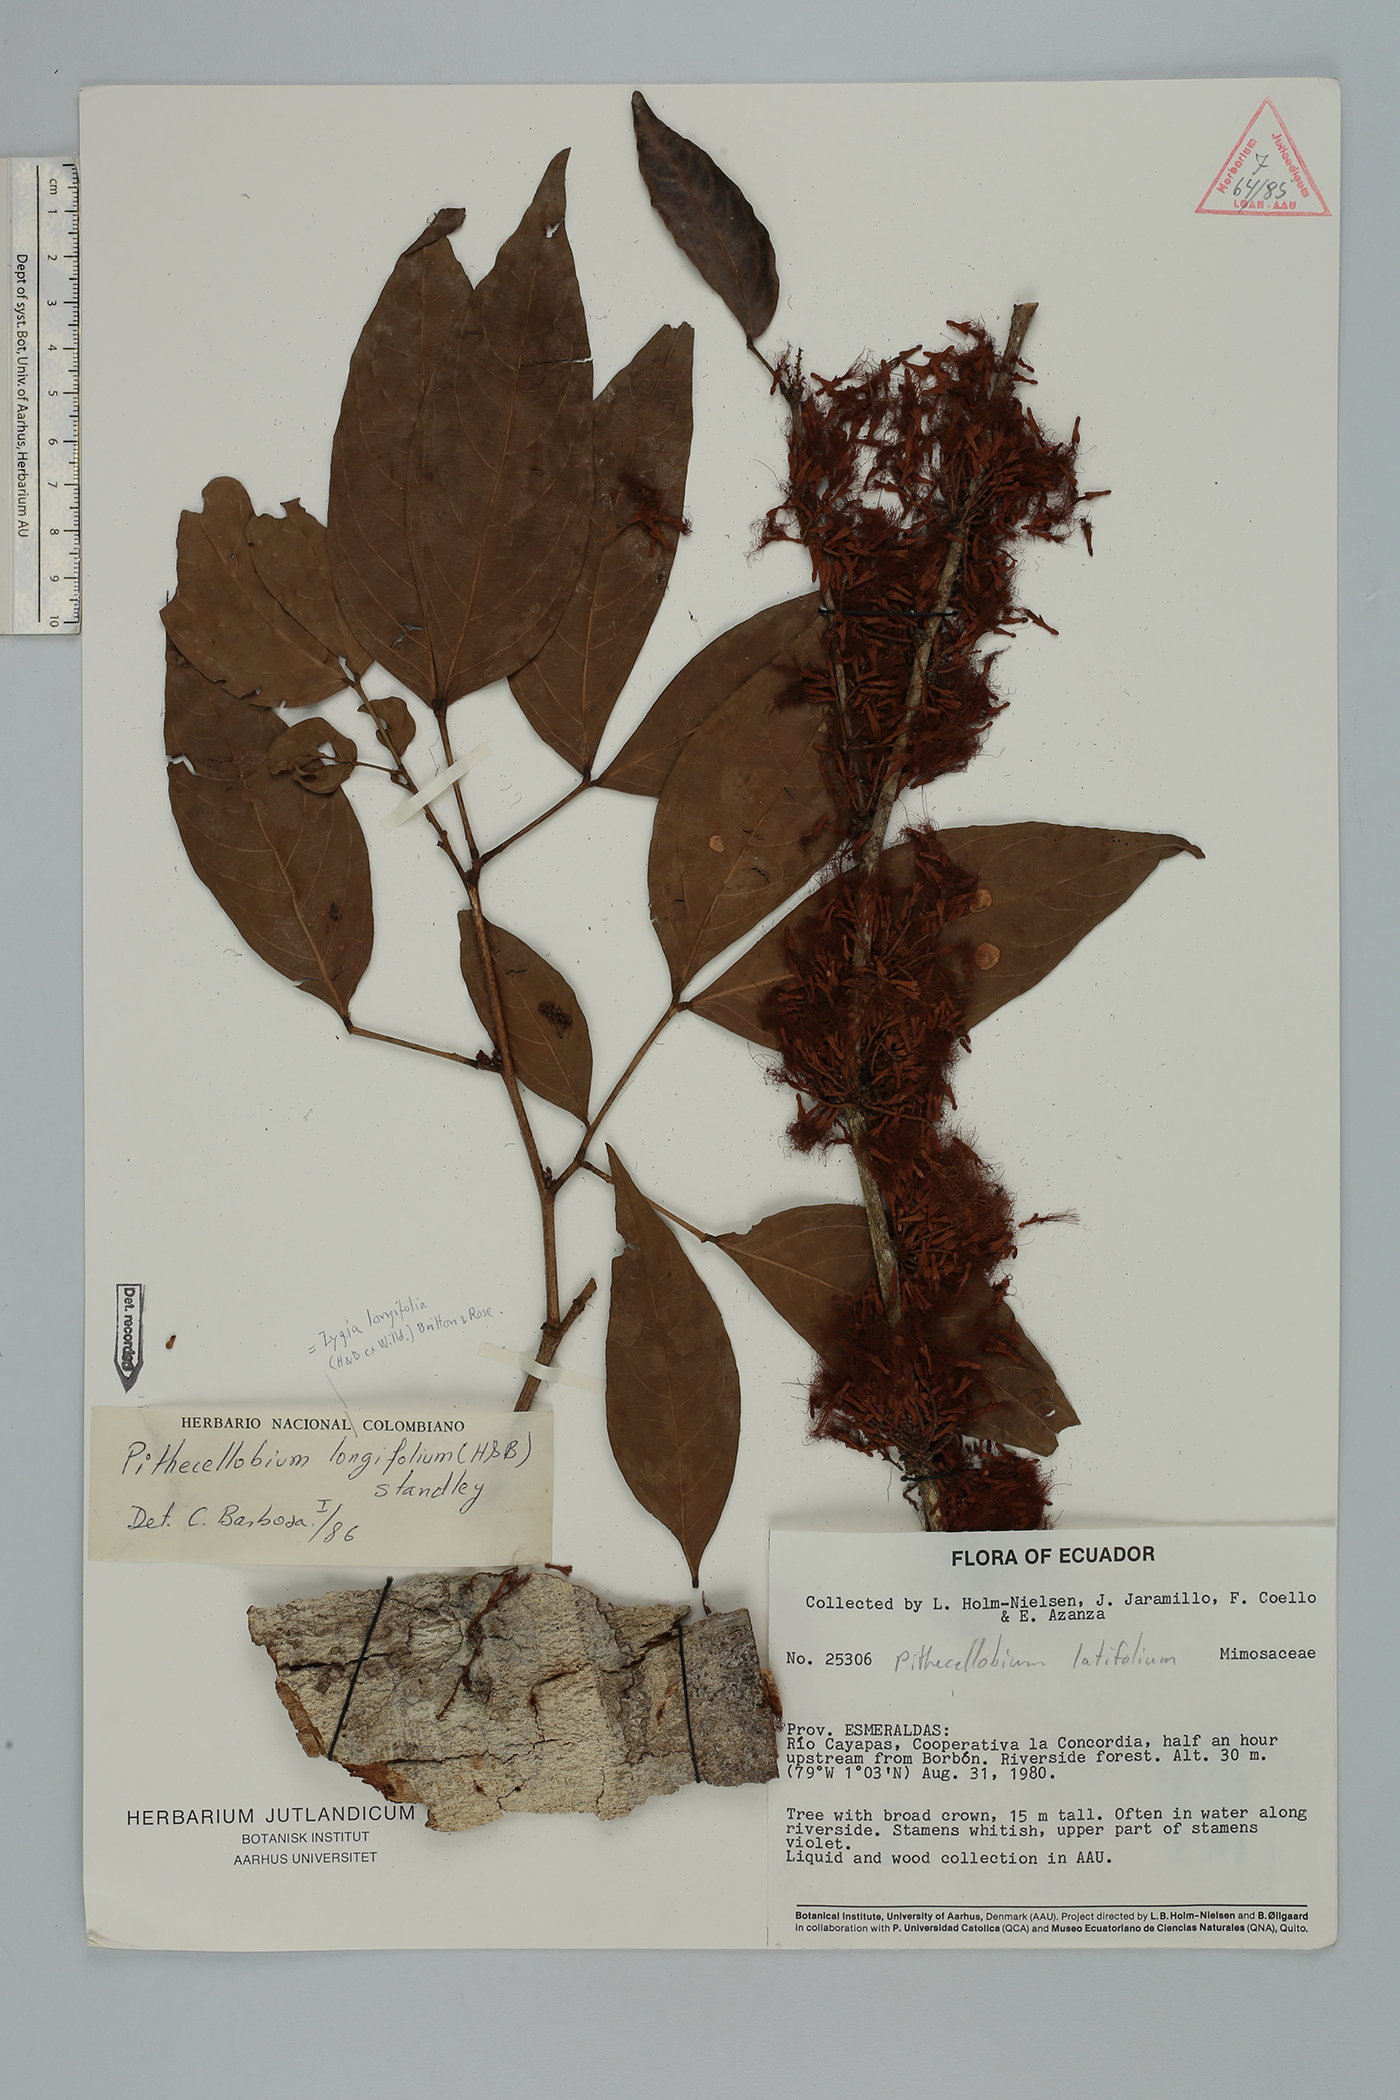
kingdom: Plantae
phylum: Tracheophyta
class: Magnoliopsida
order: Fabales
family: Fabaceae
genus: Zygia
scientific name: Zygia longifolia
